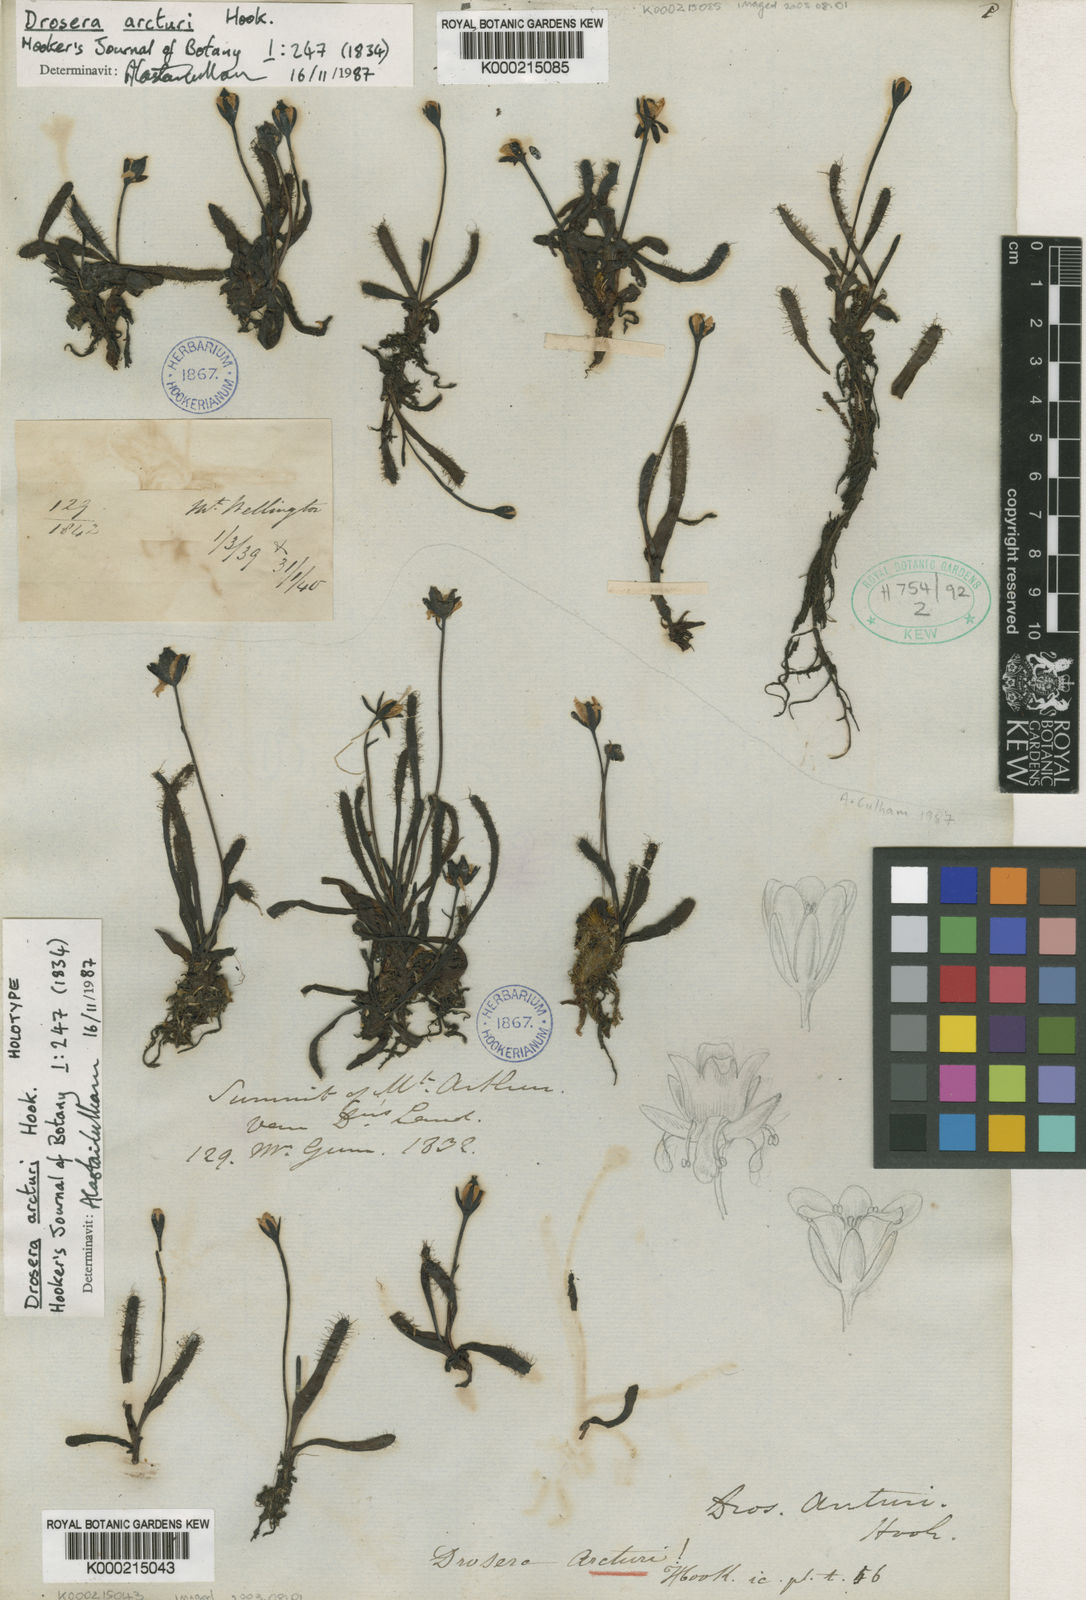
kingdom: Plantae
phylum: Tracheophyta
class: Magnoliopsida
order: Caryophyllales
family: Droseraceae
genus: Drosera
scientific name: Drosera arcturi
